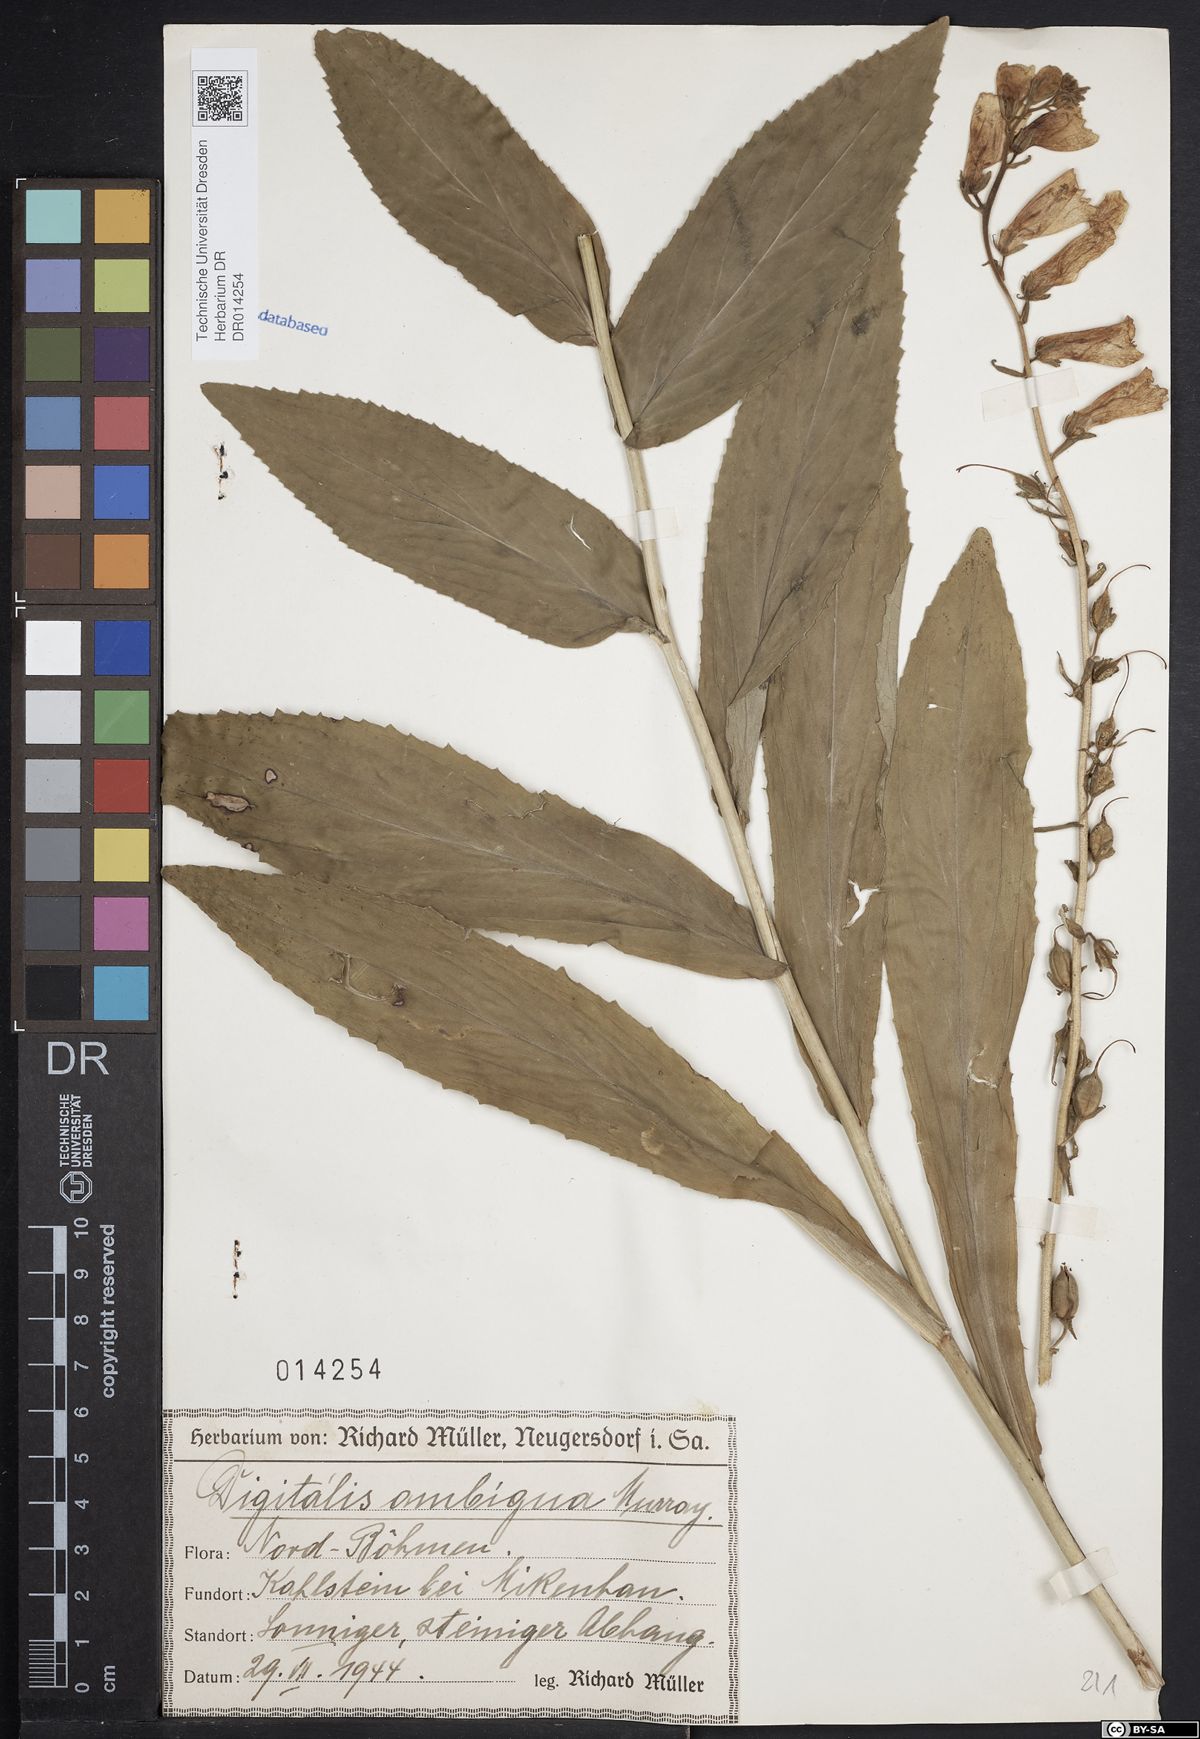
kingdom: Plantae
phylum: Tracheophyta
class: Magnoliopsida
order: Lamiales
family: Plantaginaceae
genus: Digitalis
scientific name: Digitalis grandiflora
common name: Yellow foxglove
